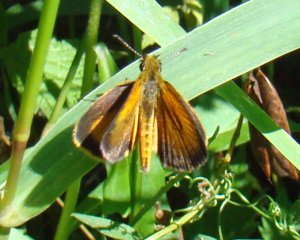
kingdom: Animalia
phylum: Arthropoda
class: Insecta
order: Lepidoptera
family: Hesperiidae
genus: Ancyloxypha
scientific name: Ancyloxypha numitor
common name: Least Skipper
